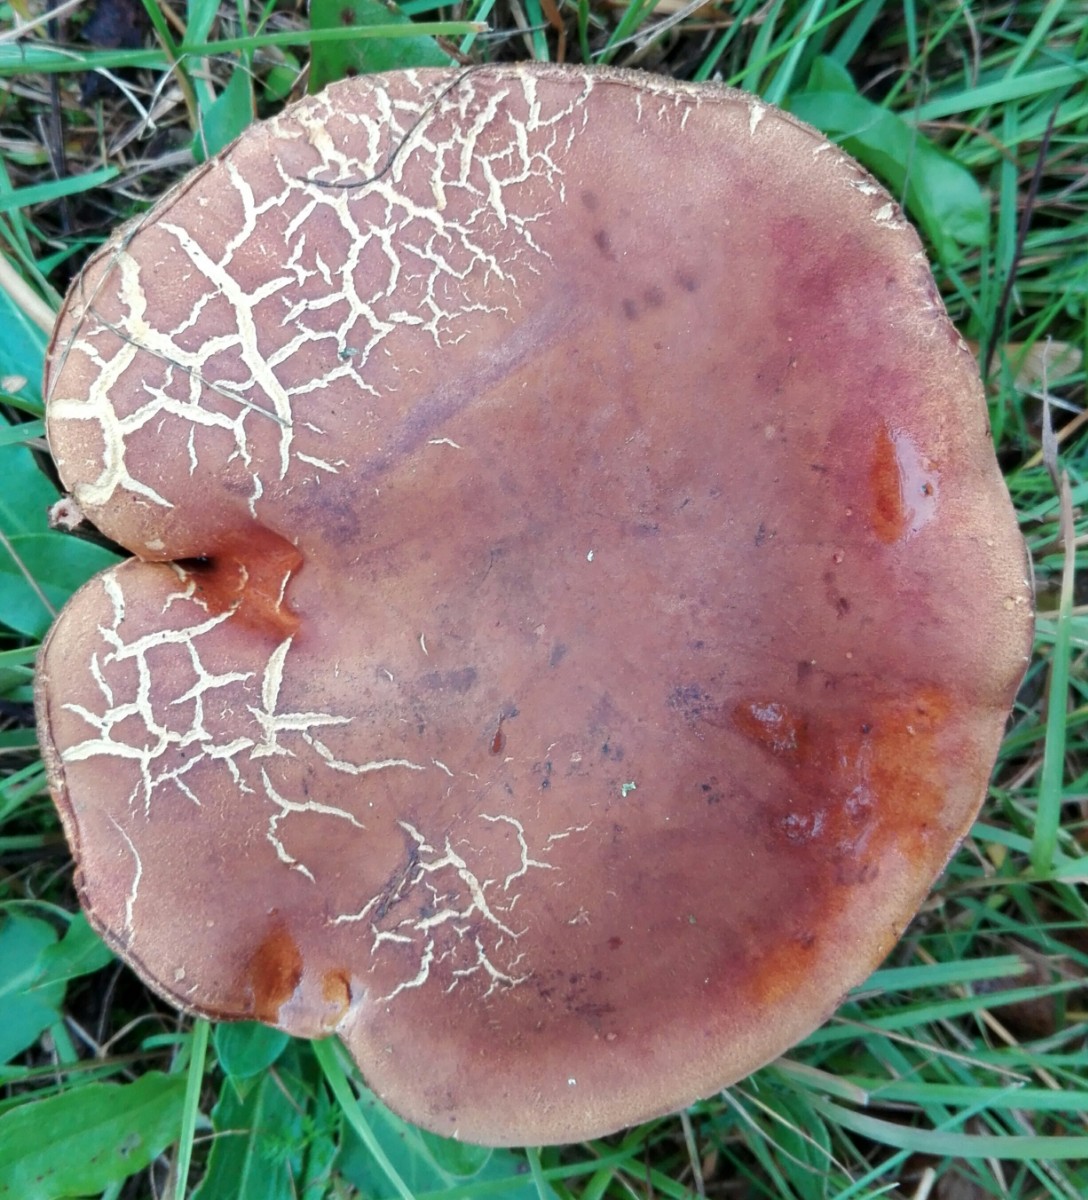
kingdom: Fungi
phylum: Basidiomycota
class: Agaricomycetes
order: Boletales
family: Boletaceae
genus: Imleria
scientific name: Imleria badia
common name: brunstokket rørhat
